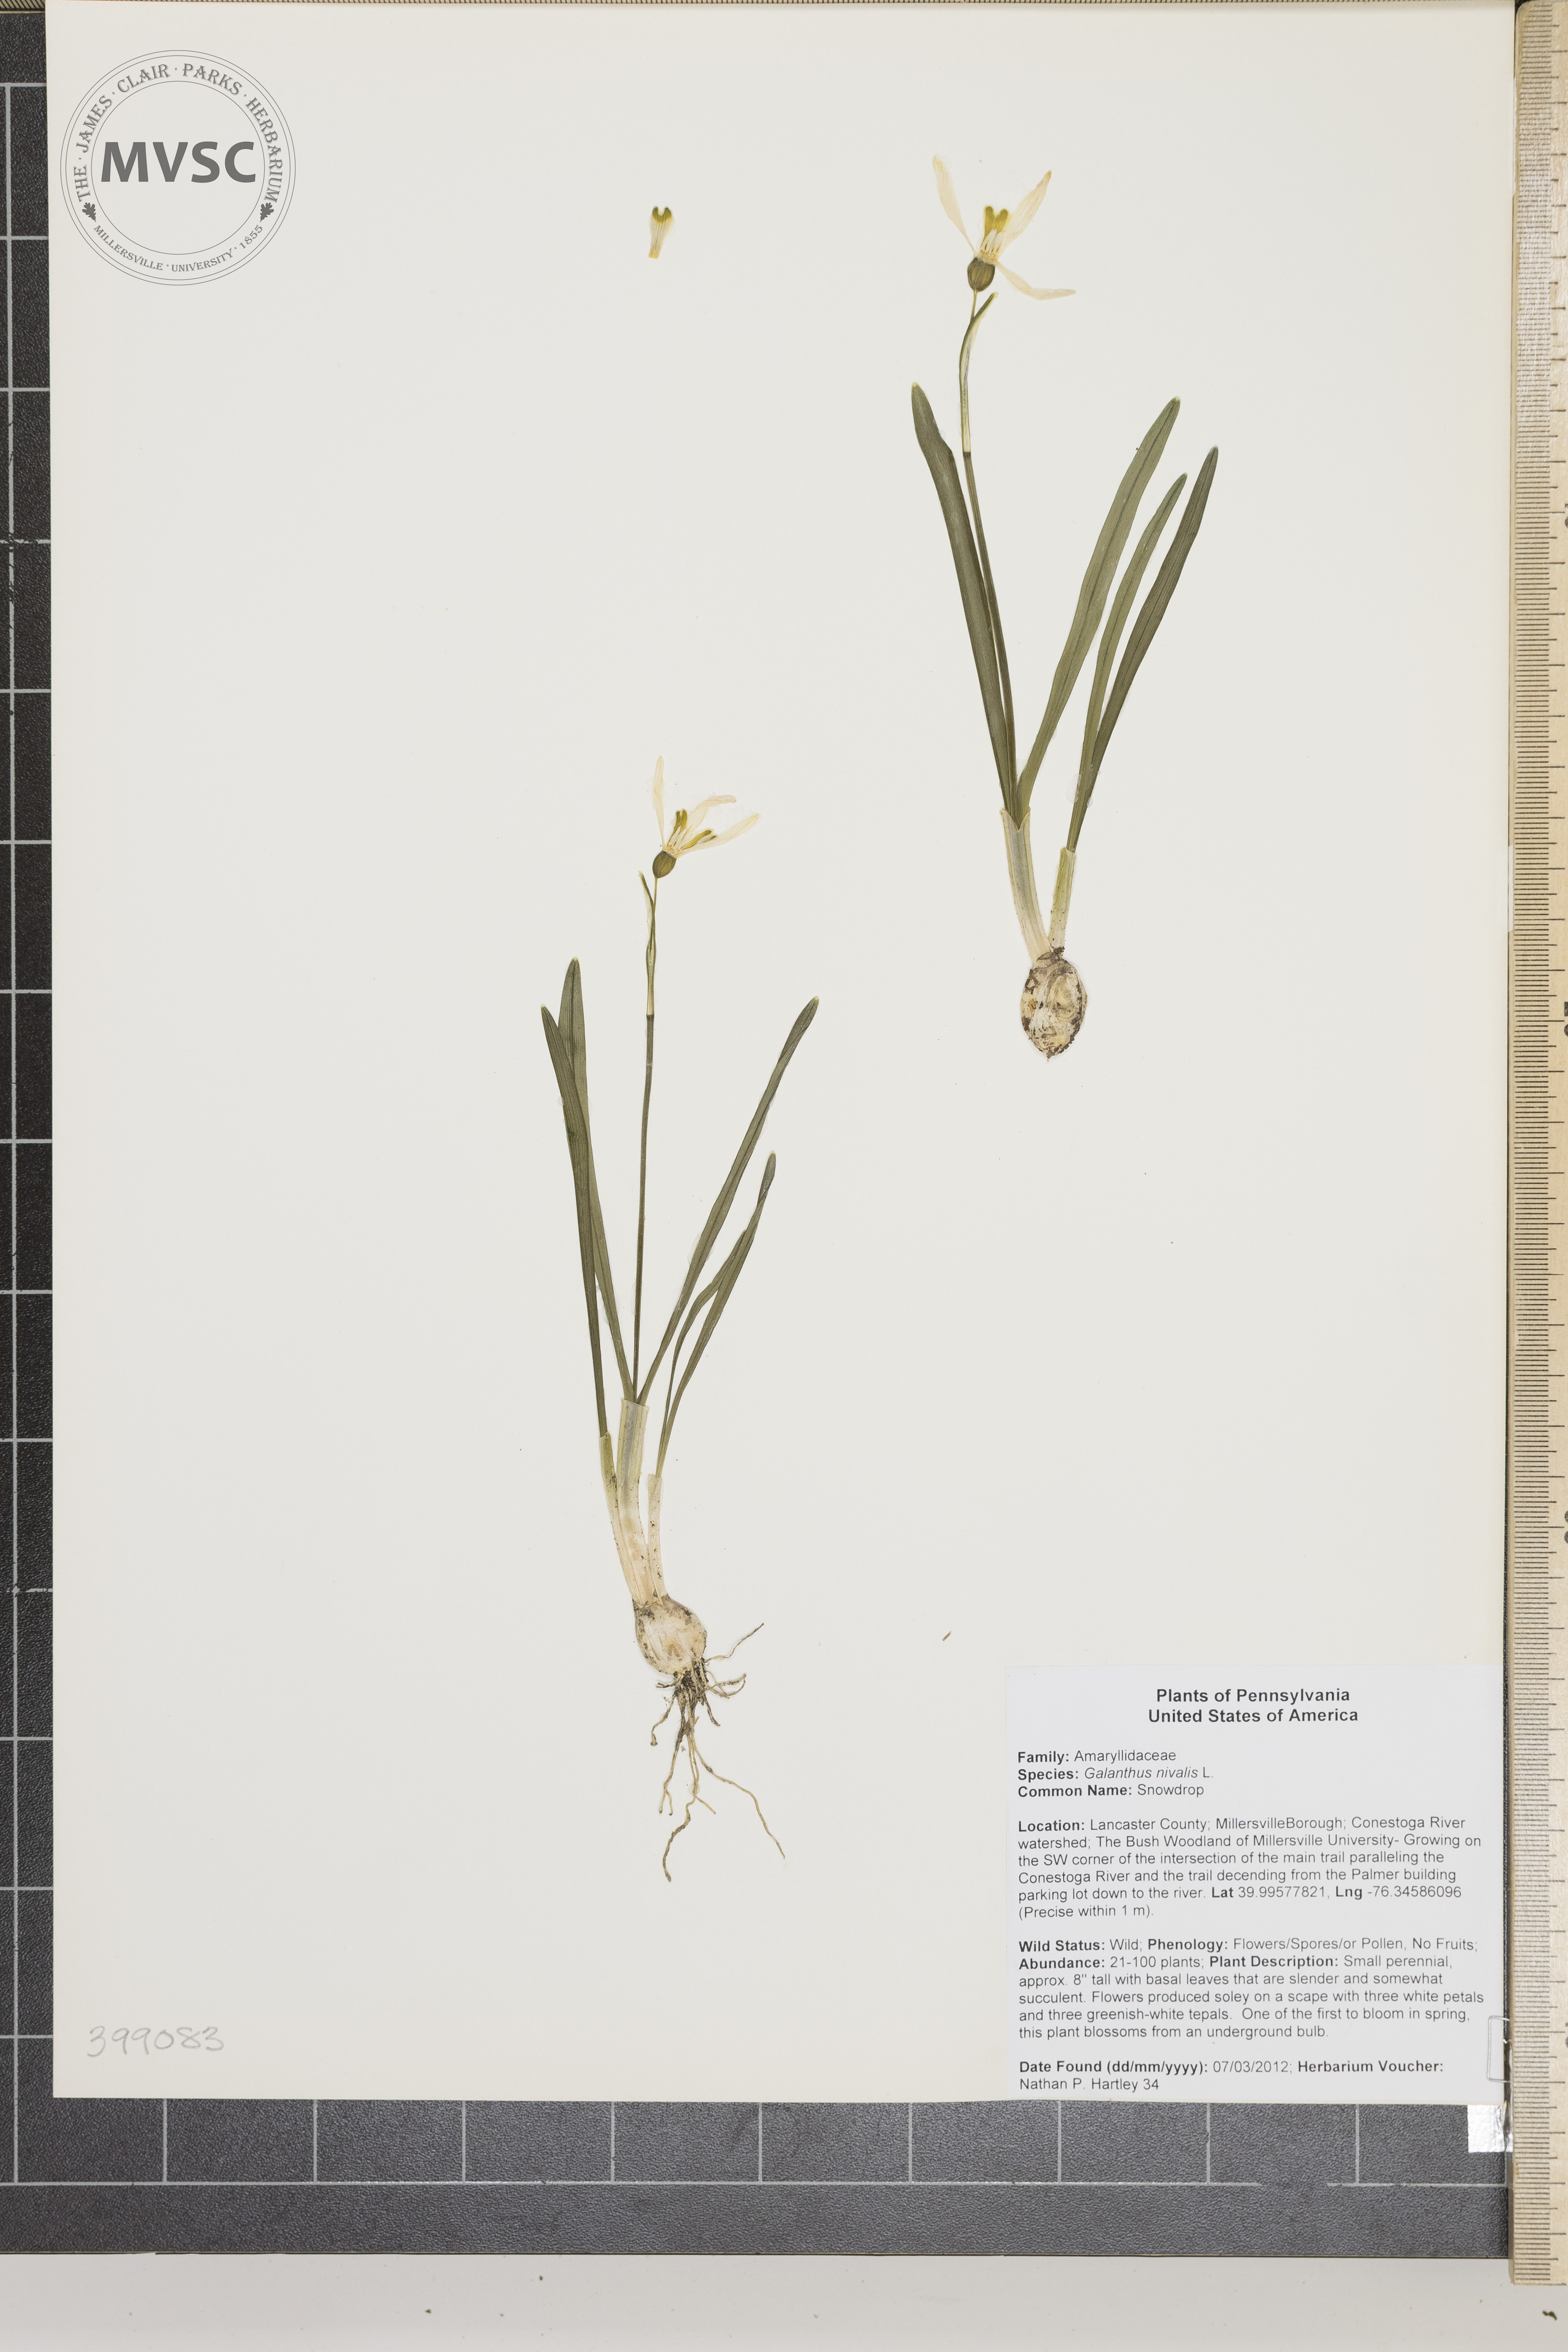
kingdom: Plantae
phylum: Tracheophyta
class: Liliopsida
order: Asparagales
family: Amaryllidaceae
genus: Galanthus
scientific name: Galanthus nivalis
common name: Snowdrop
